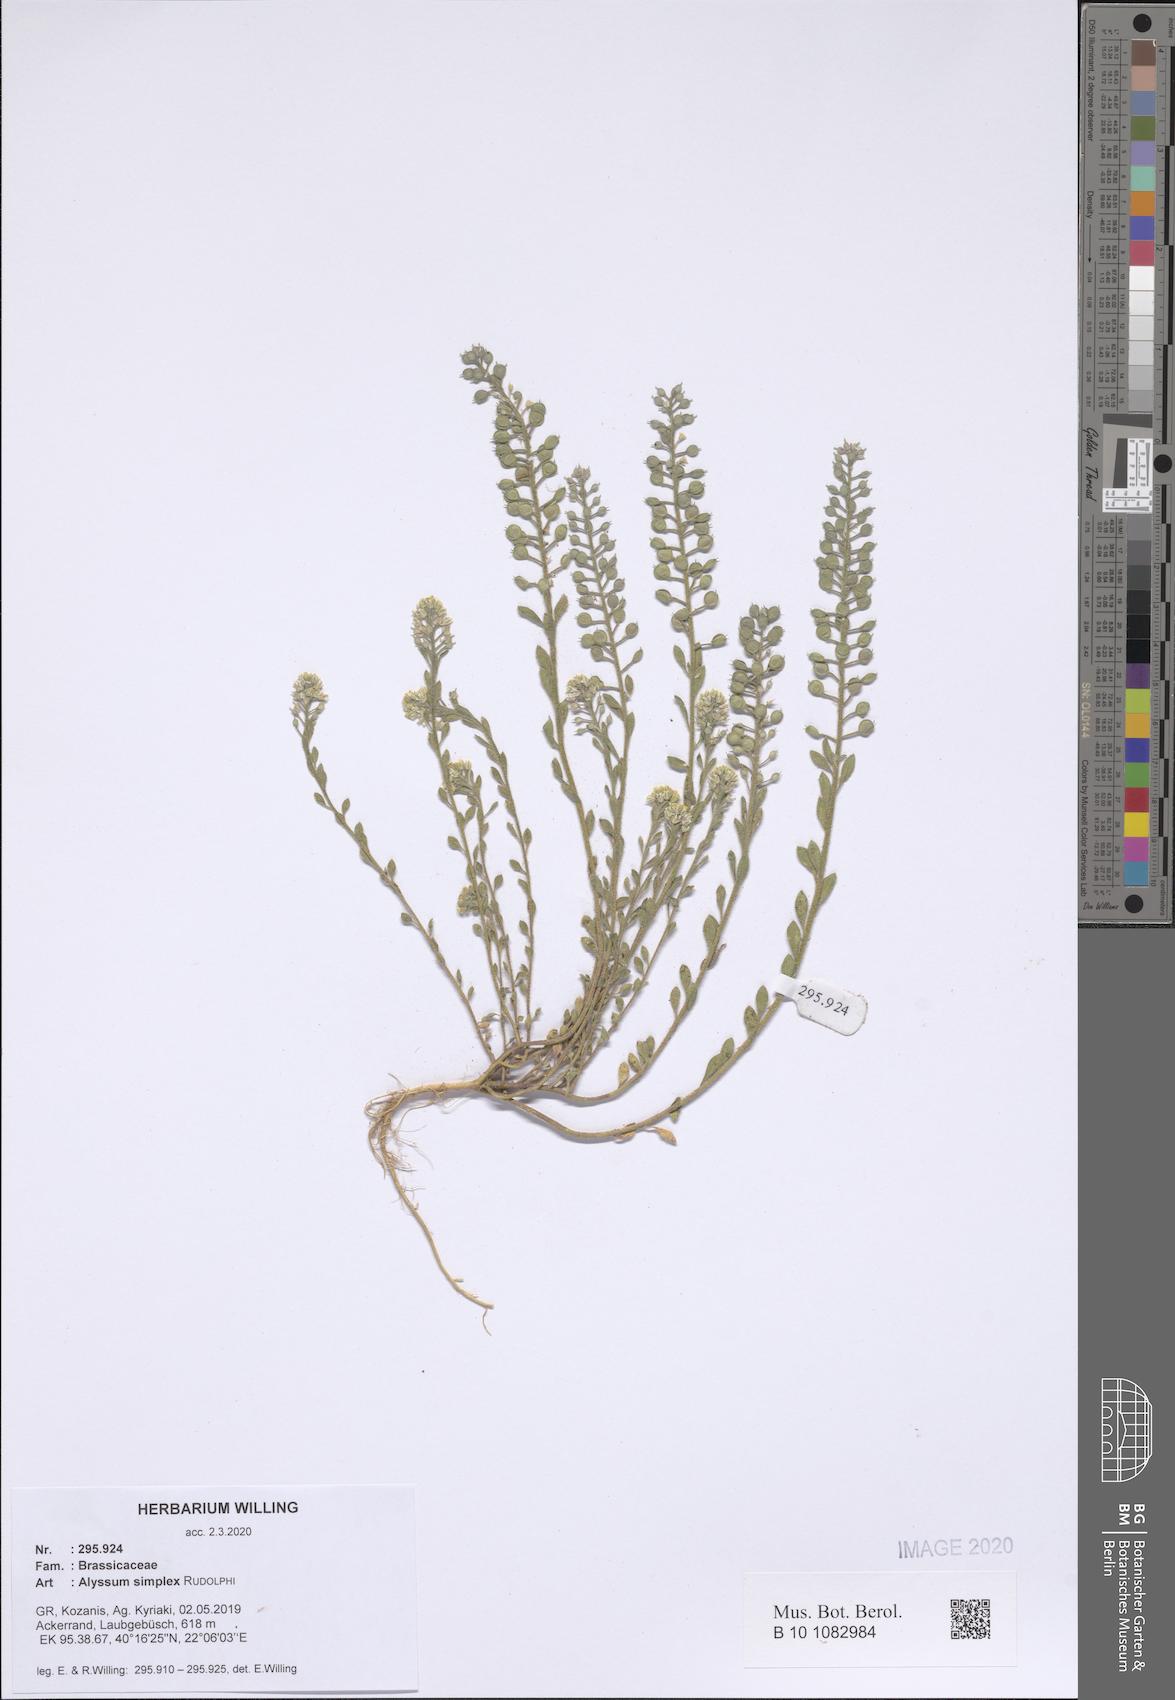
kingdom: Plantae
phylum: Tracheophyta
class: Magnoliopsida
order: Brassicales
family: Brassicaceae
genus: Alyssum
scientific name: Alyssum simplex
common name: Alyssum
